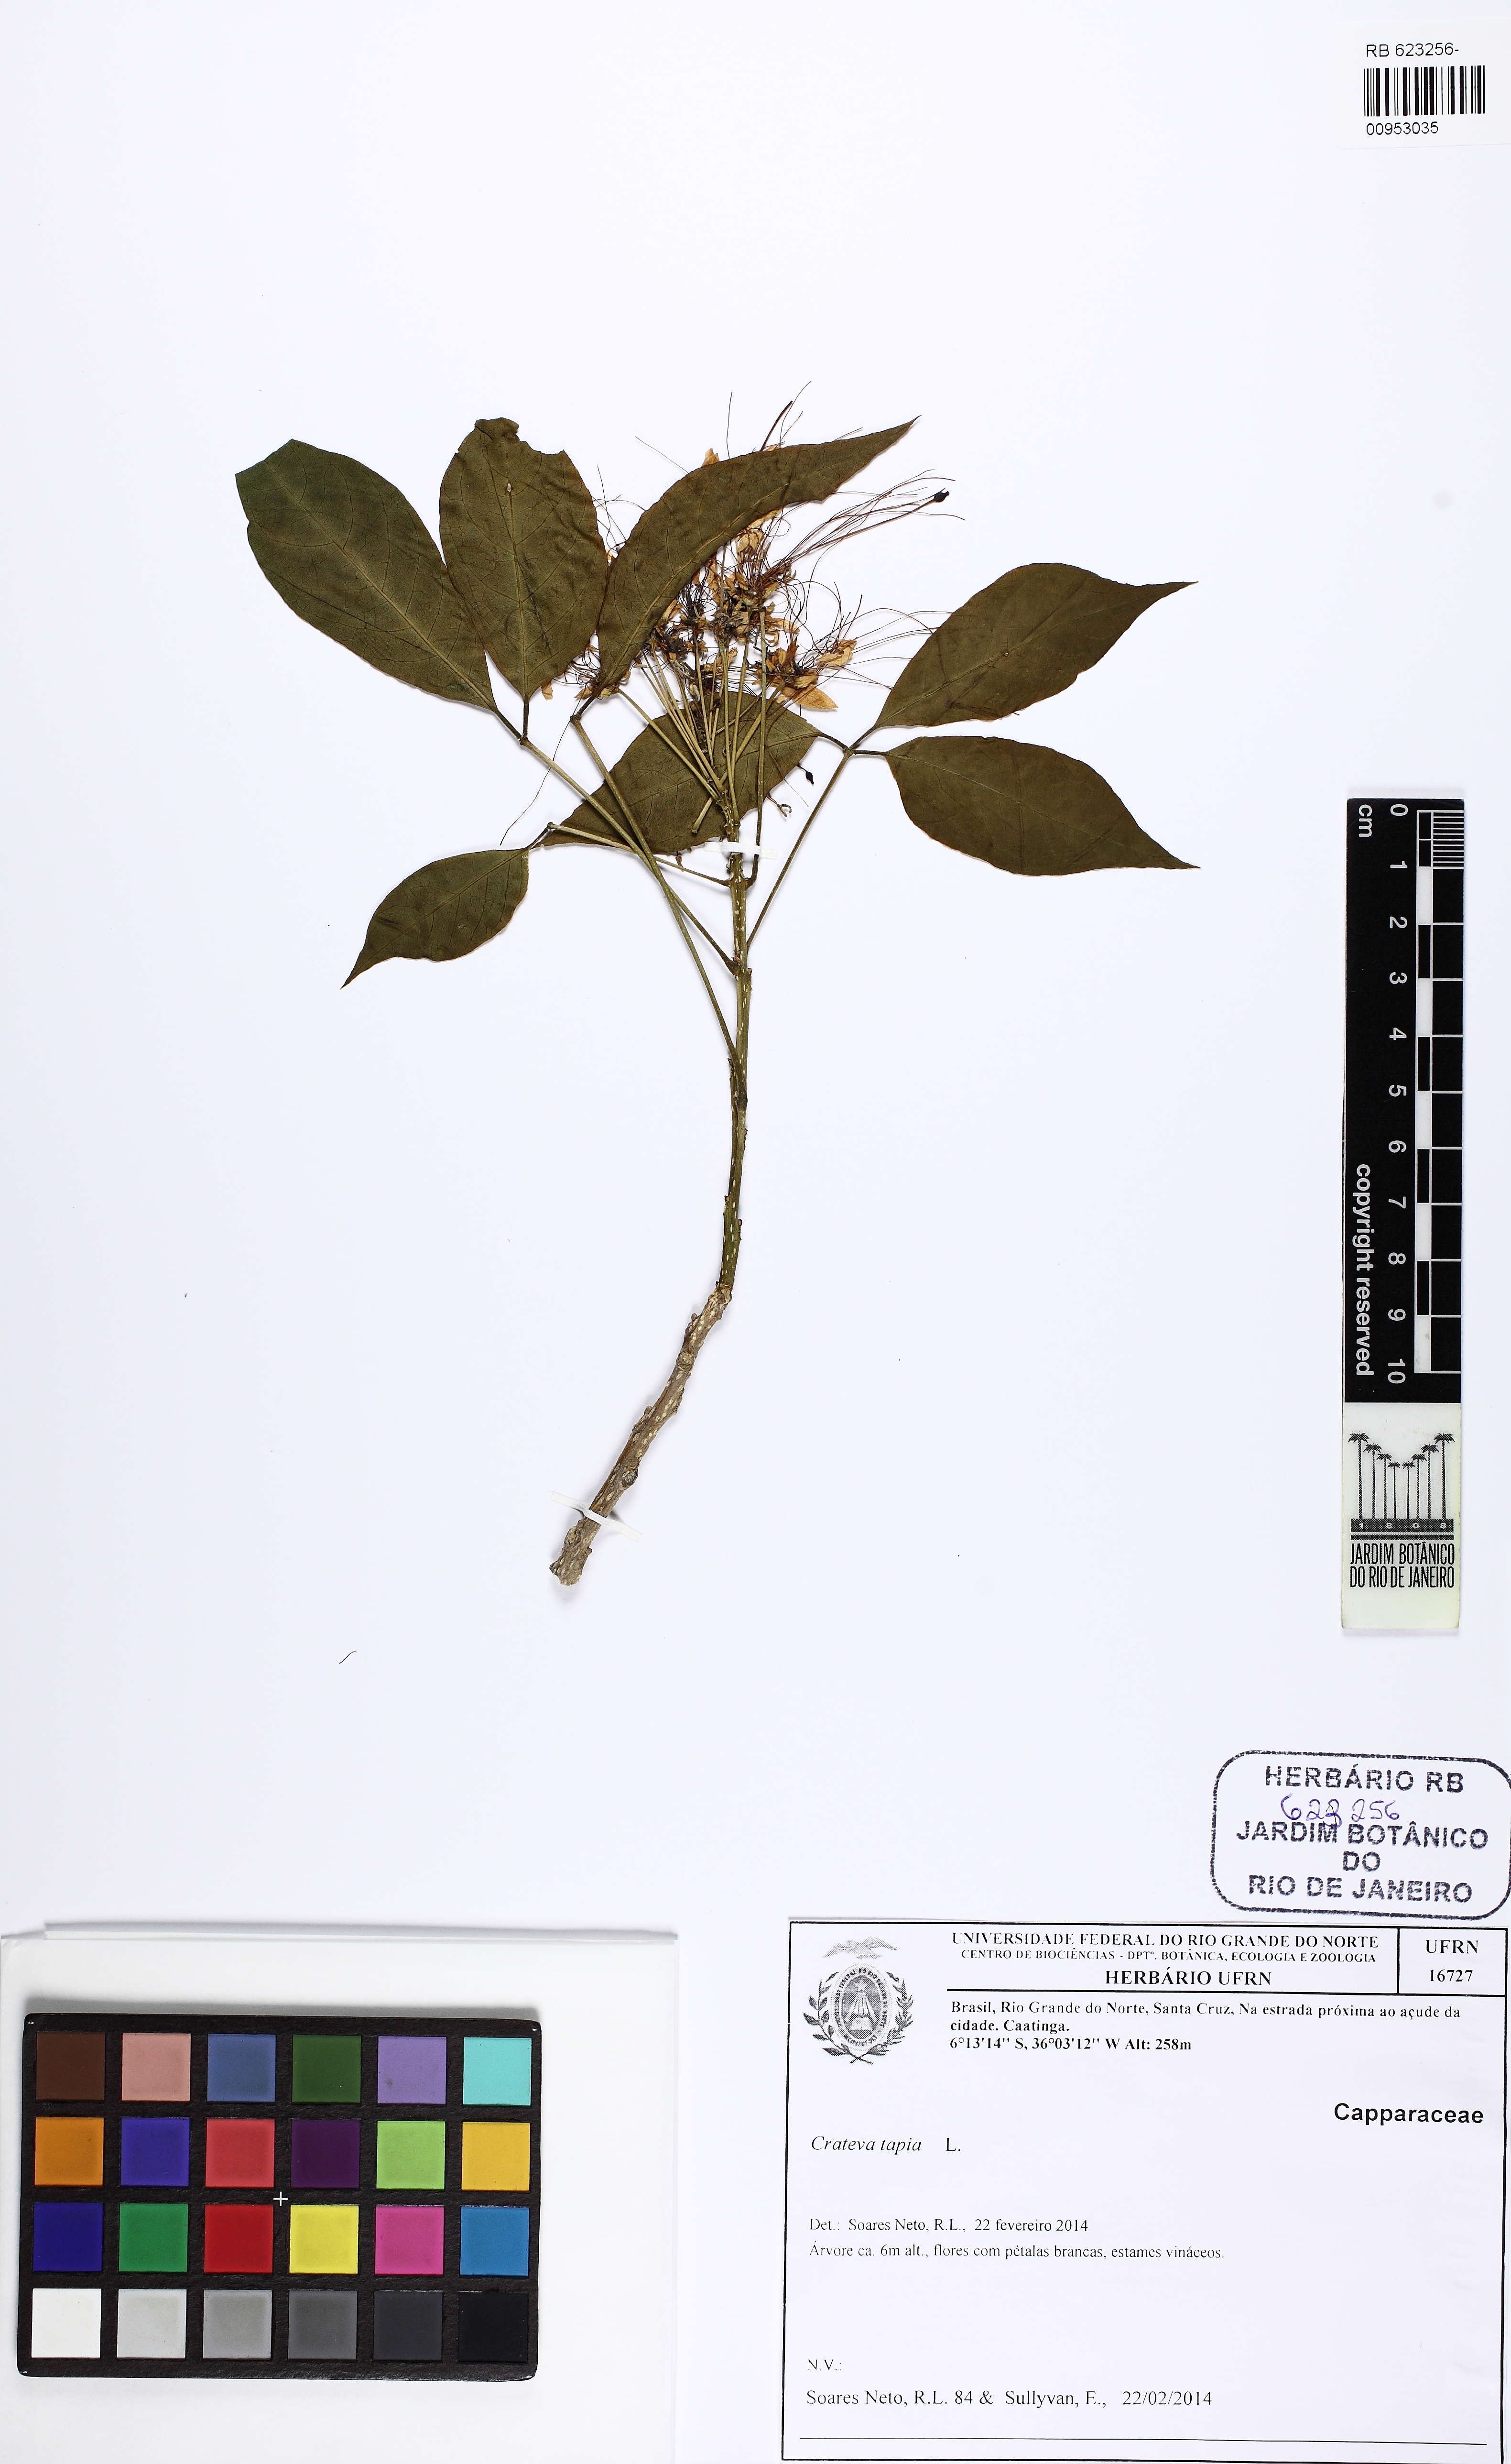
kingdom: Plantae
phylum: Tracheophyta
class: Magnoliopsida
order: Brassicales
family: Capparaceae
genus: Crateva
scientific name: Crateva tapia
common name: Garlic-pear
